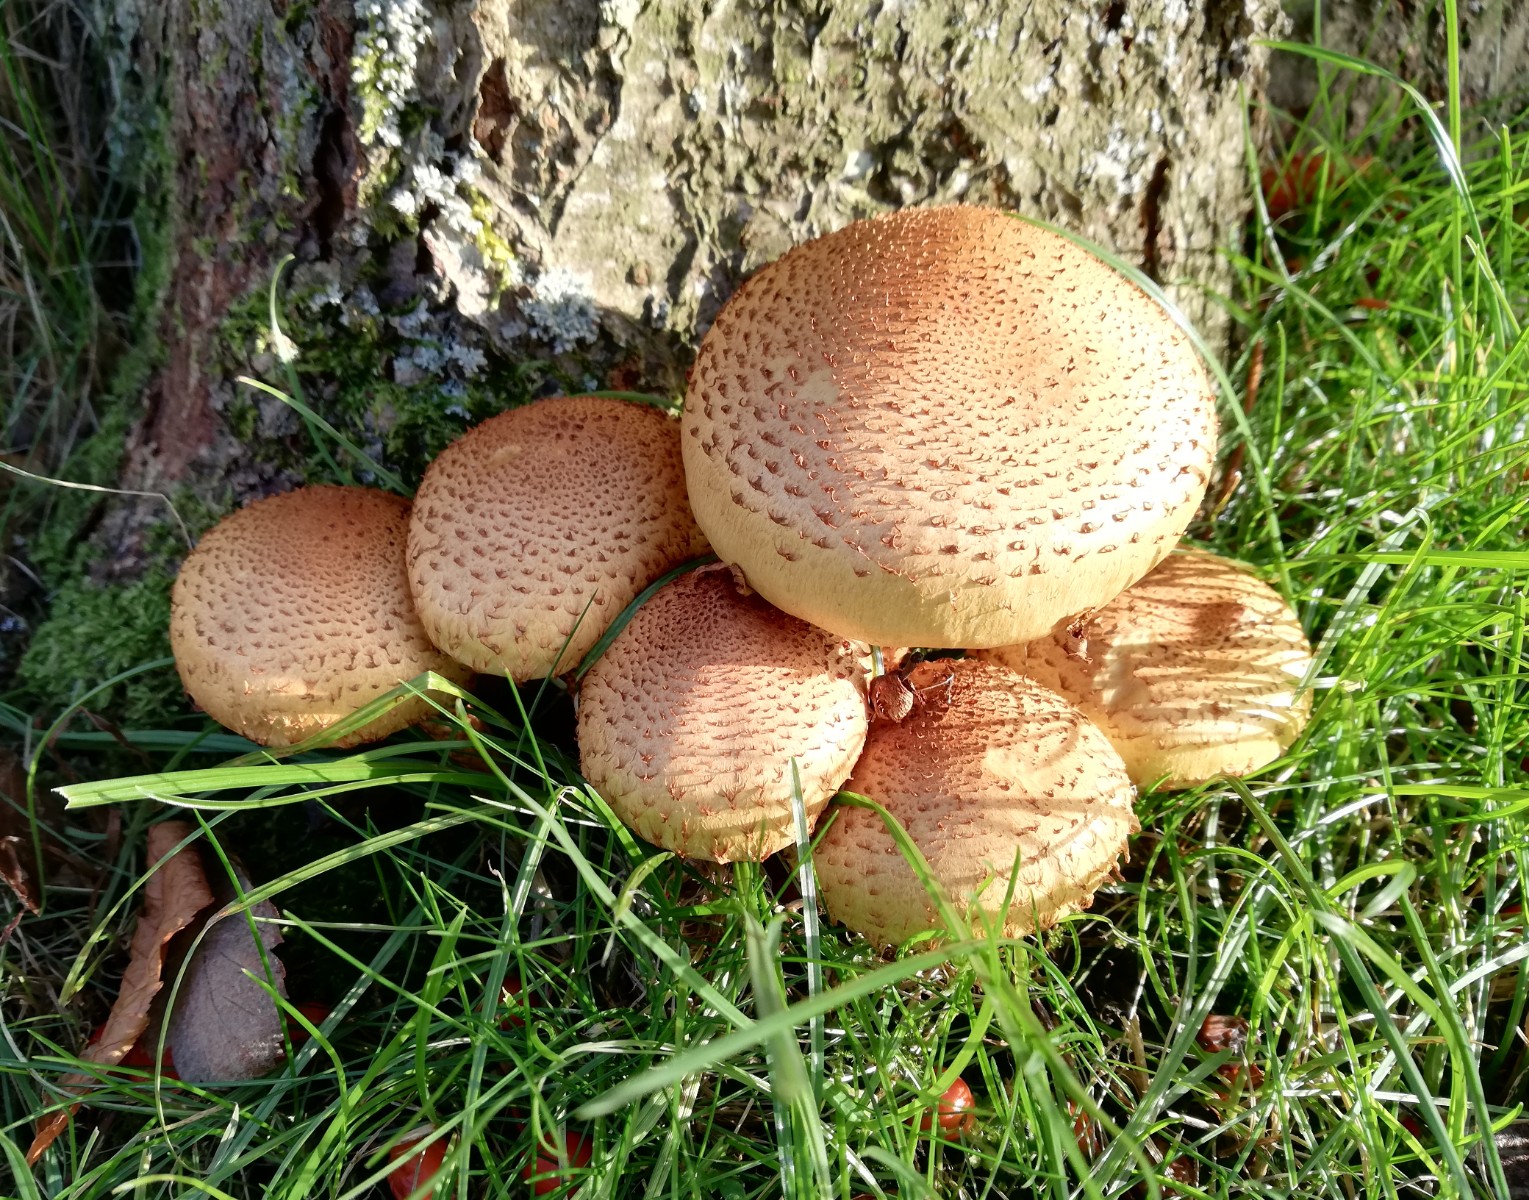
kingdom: Fungi
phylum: Basidiomycota
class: Agaricomycetes
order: Agaricales
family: Strophariaceae
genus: Pholiota
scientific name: Pholiota squarrosa
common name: krumskællet skælhat
